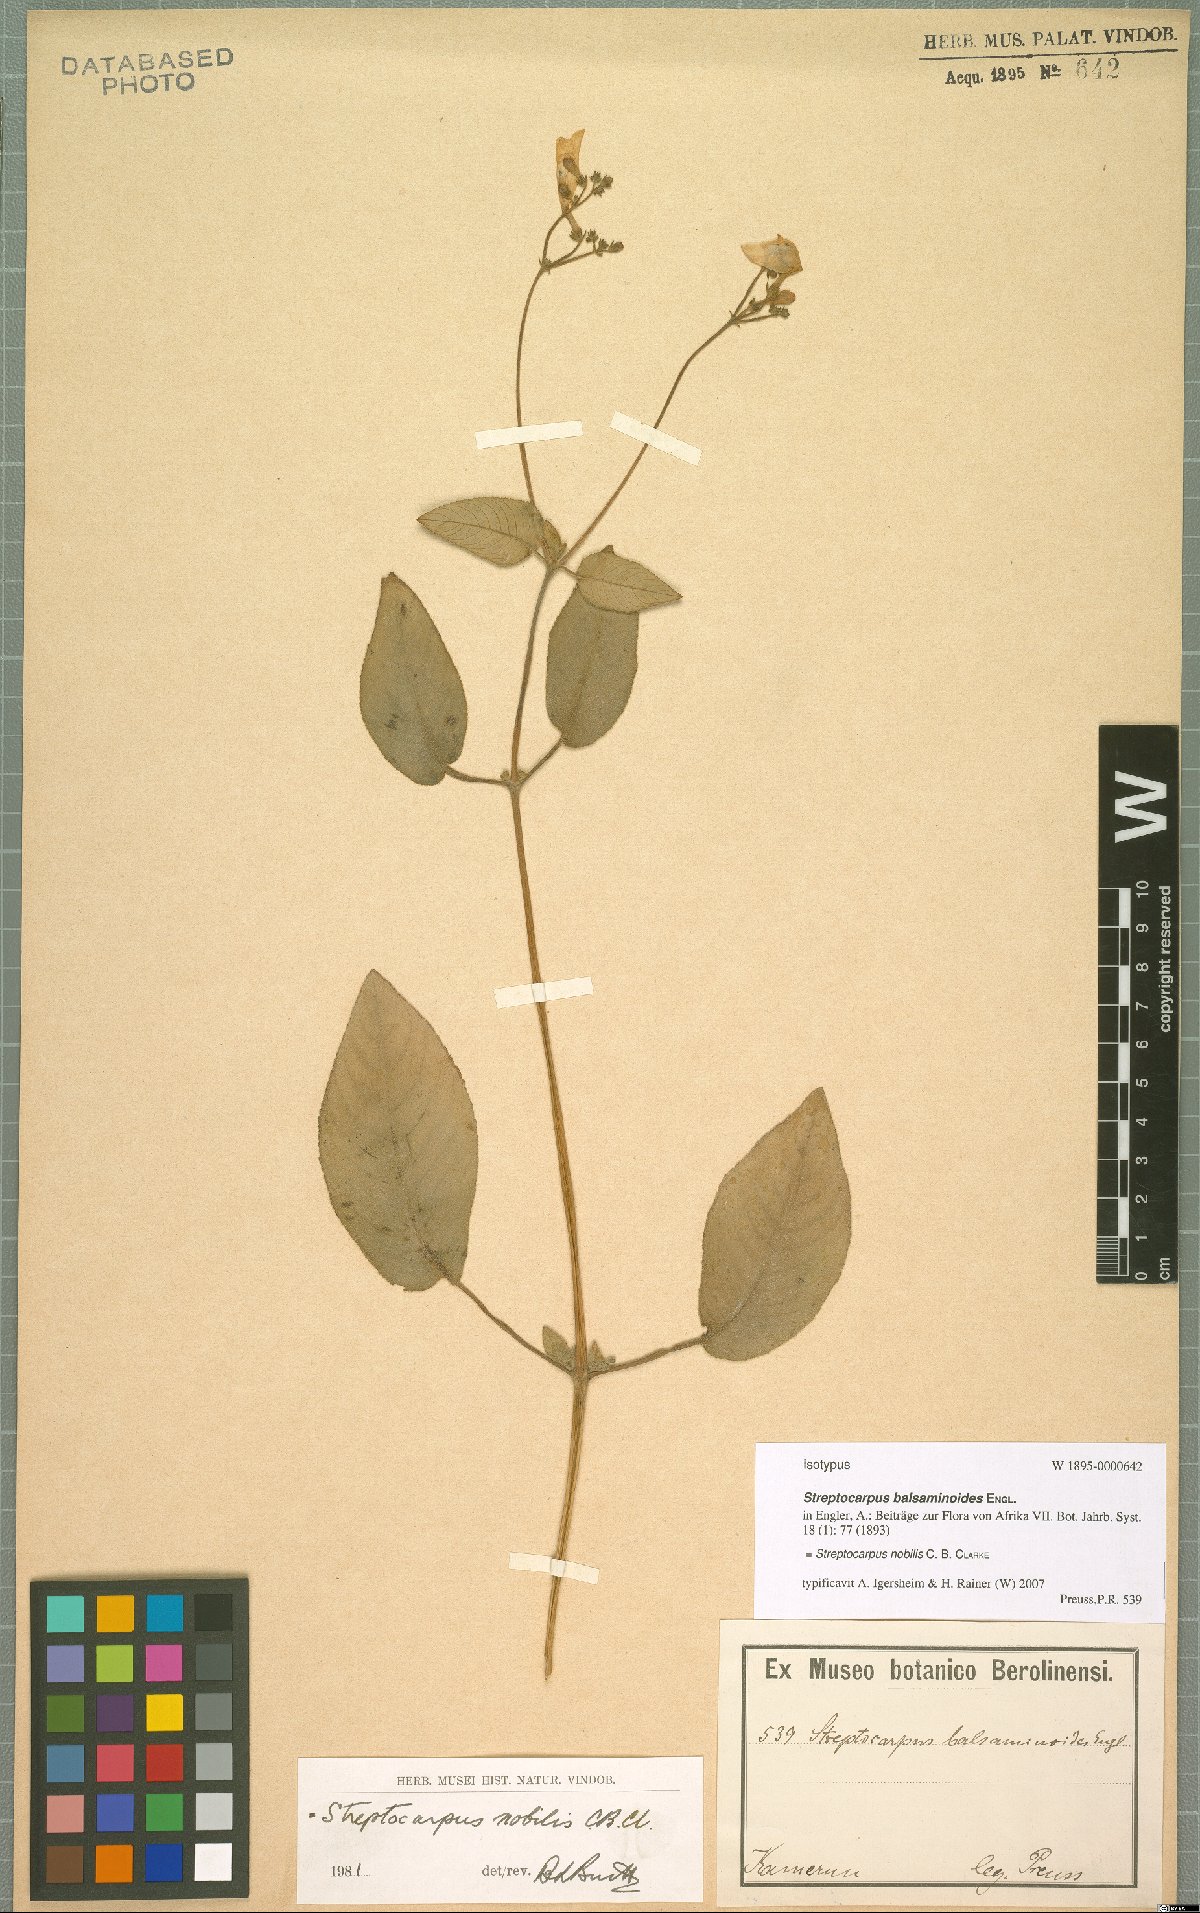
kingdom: Plantae
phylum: Tracheophyta
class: Magnoliopsida
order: Lamiales
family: Gesneriaceae
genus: Streptocarpus
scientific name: Streptocarpus nobilis
